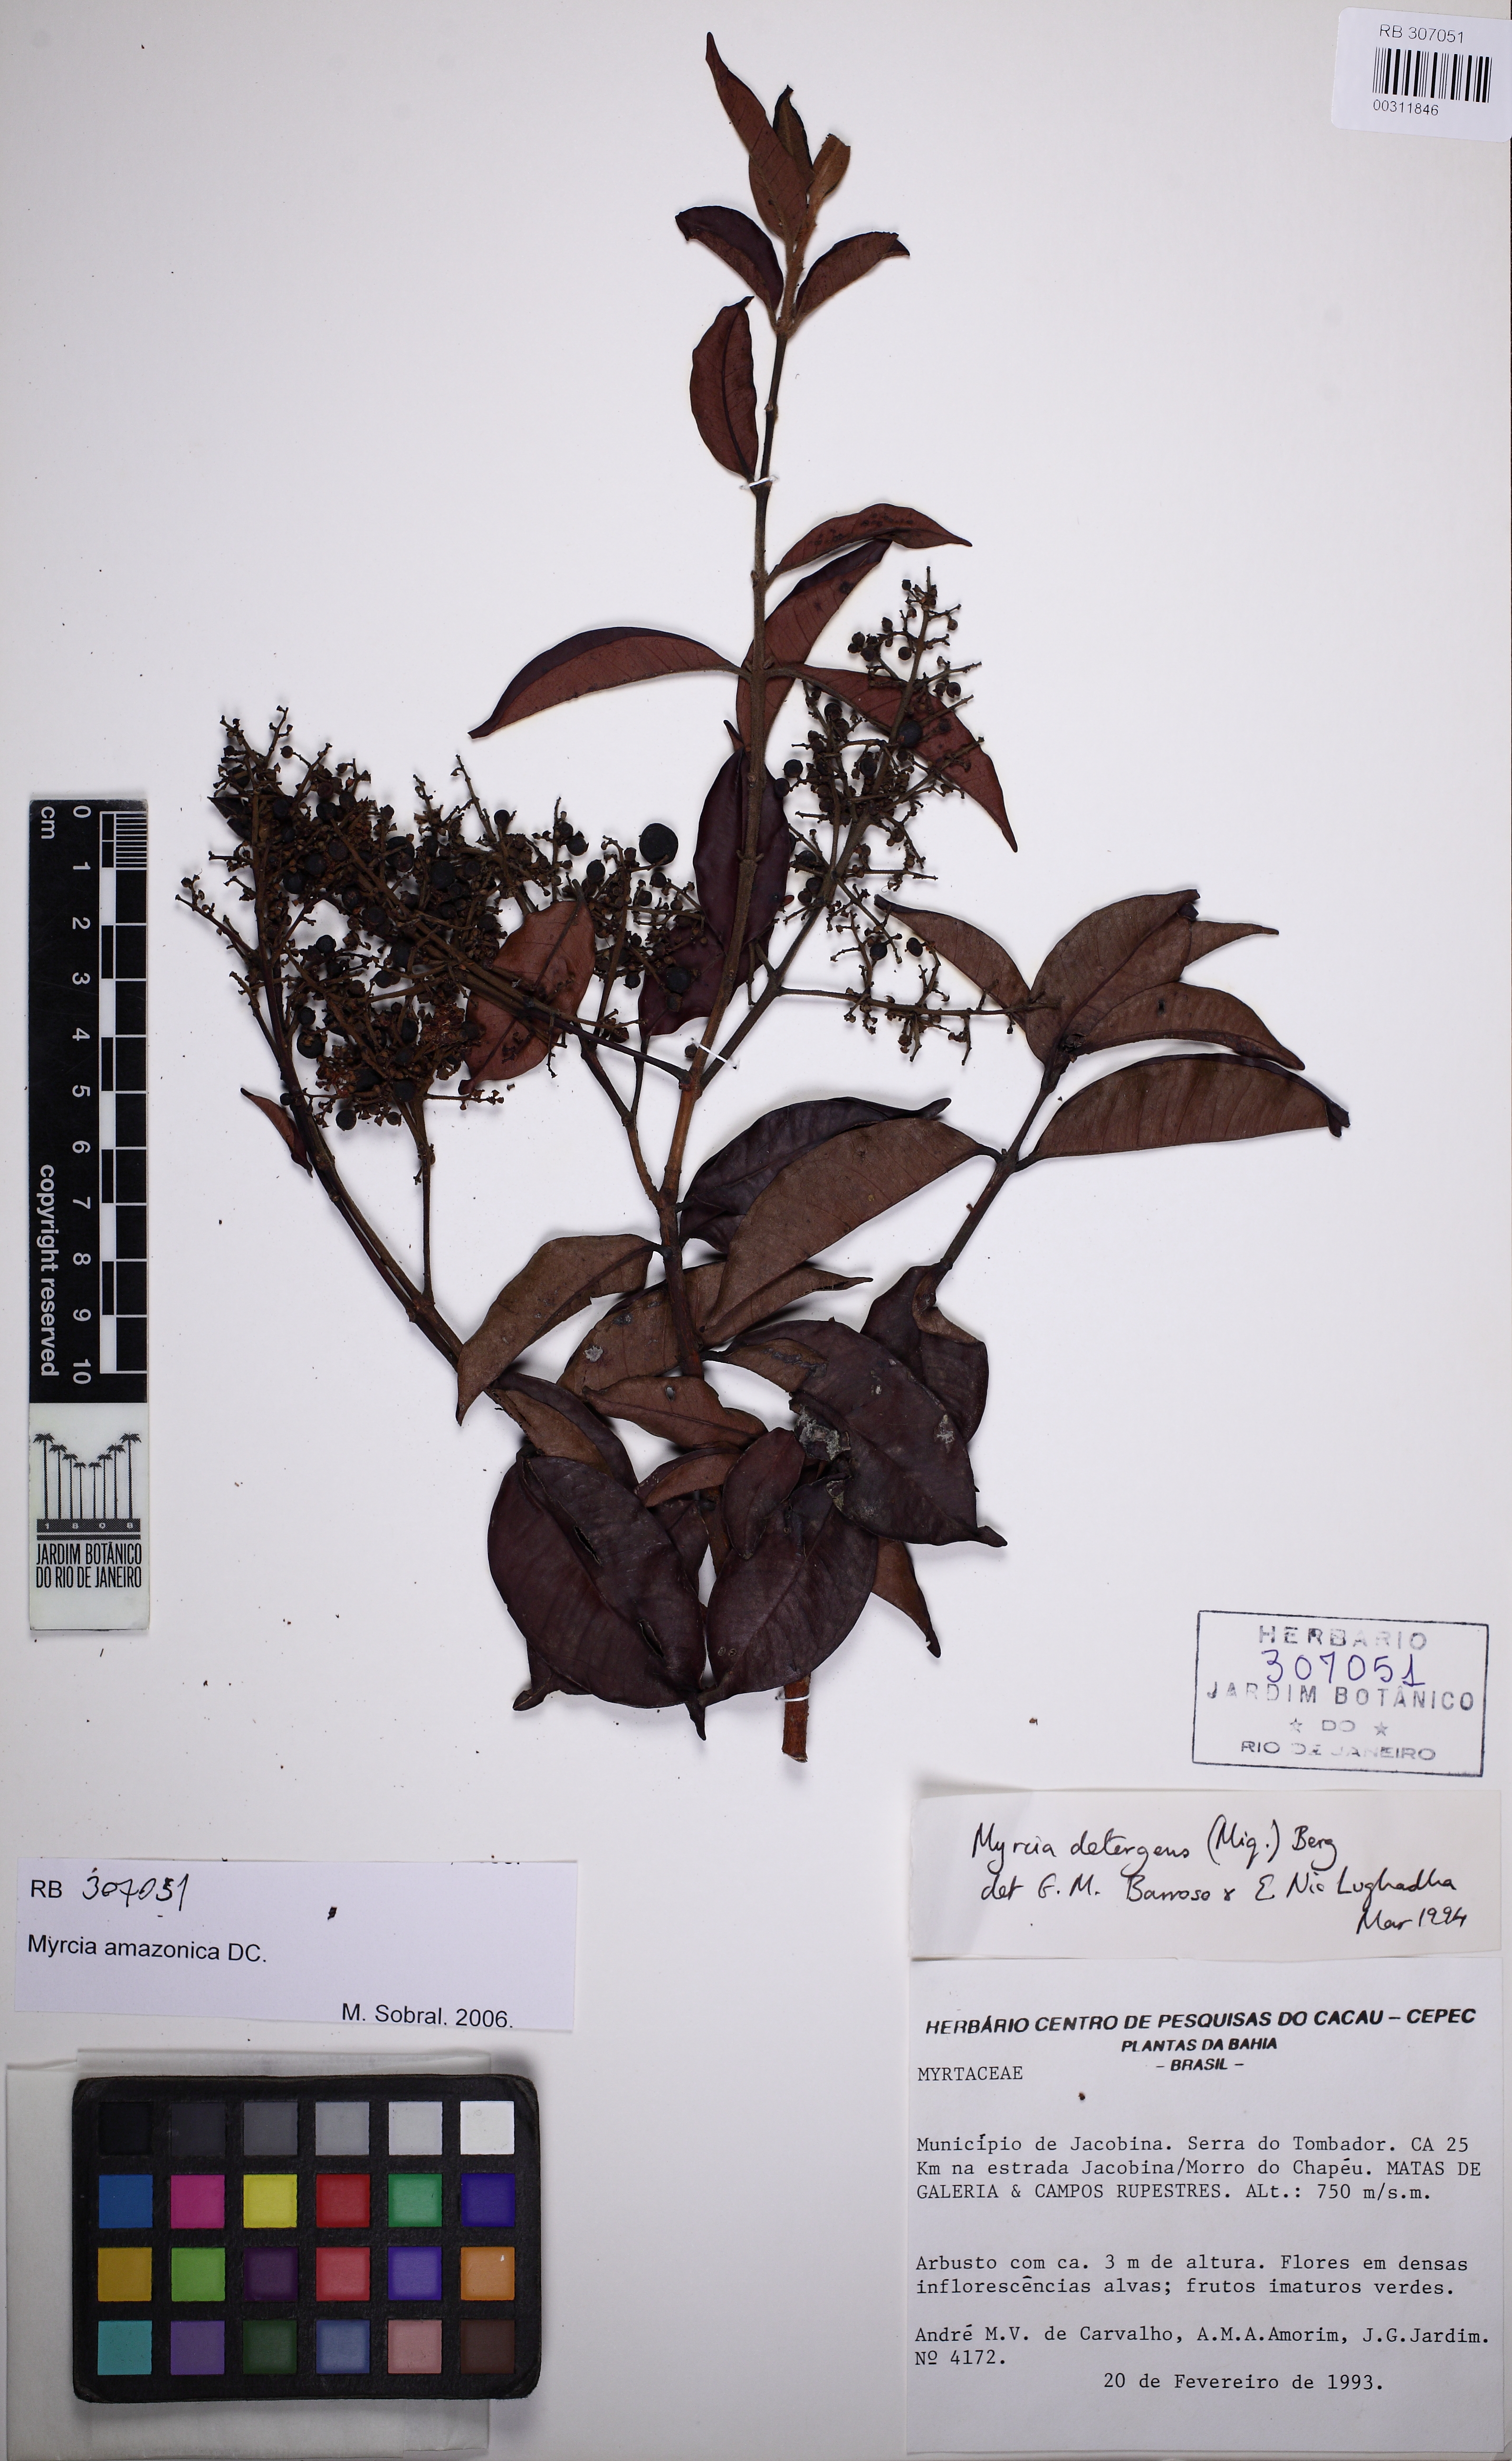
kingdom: Plantae
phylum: Tracheophyta
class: Magnoliopsida
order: Myrtales
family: Myrtaceae
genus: Myrcia
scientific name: Myrcia amazonica
